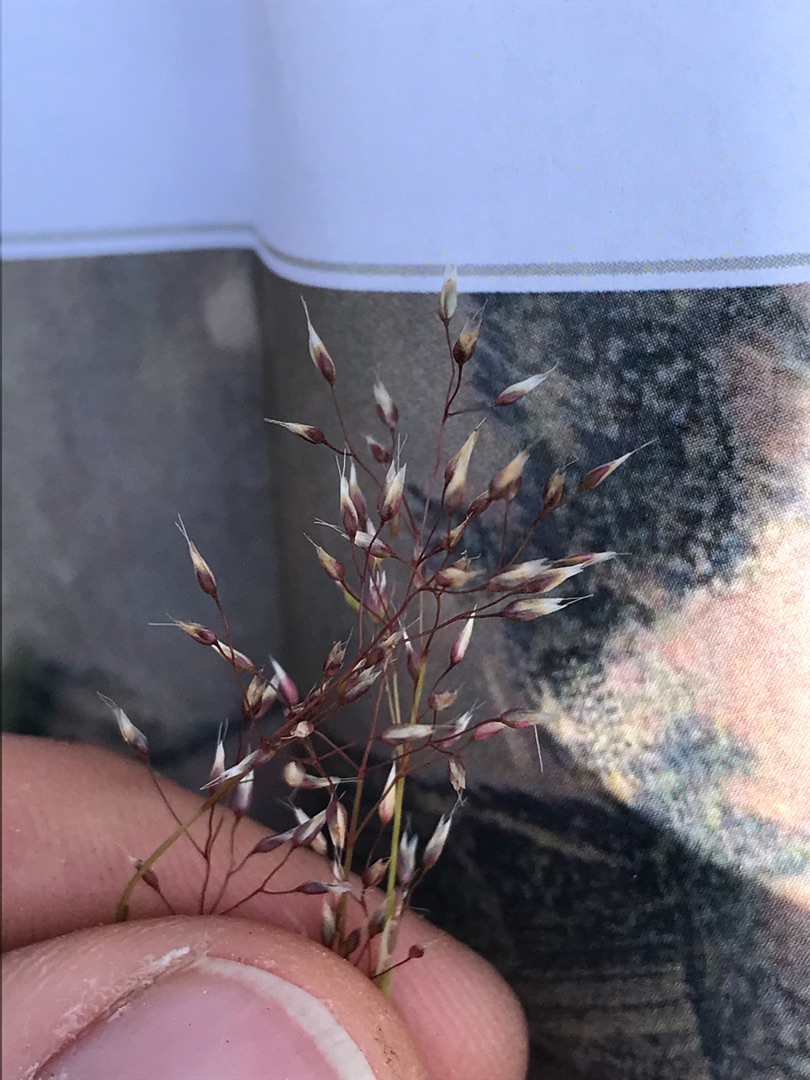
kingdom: Plantae
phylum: Tracheophyta
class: Liliopsida
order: Poales
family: Poaceae
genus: Aira
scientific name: Aira caryophyllea
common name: Udspærret dværgbunke
